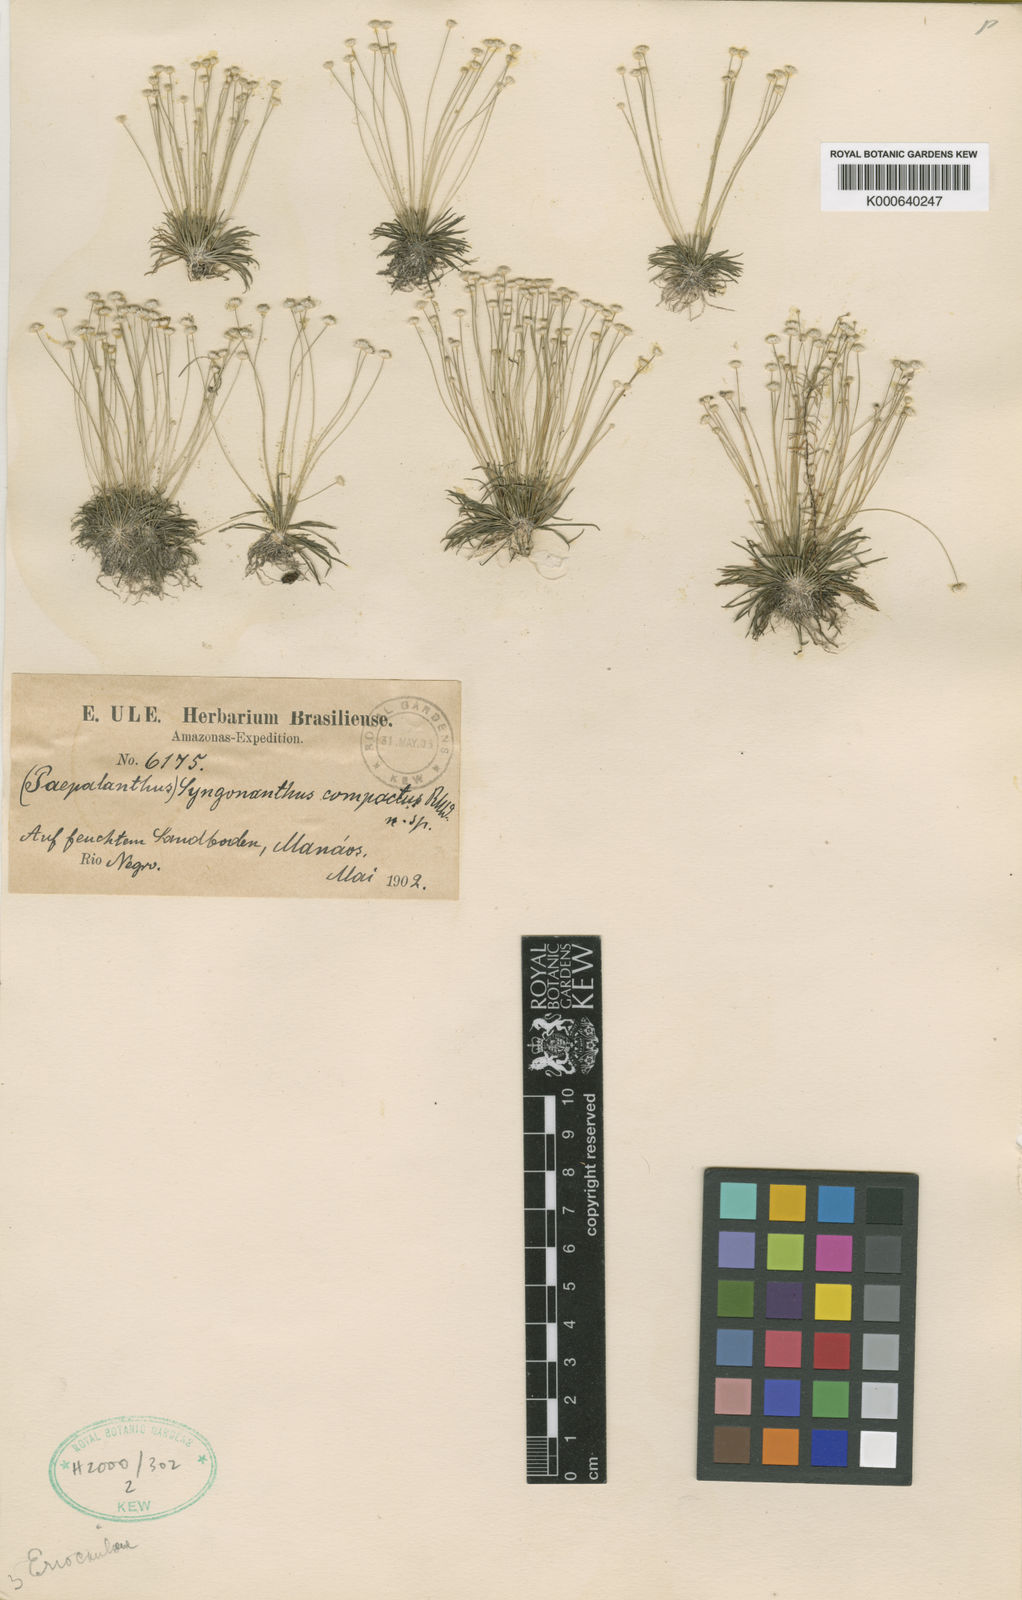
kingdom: Plantae
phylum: Tracheophyta
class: Liliopsida
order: Poales
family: Eriocaulaceae
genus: Syngonanthus
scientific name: Syngonanthus
